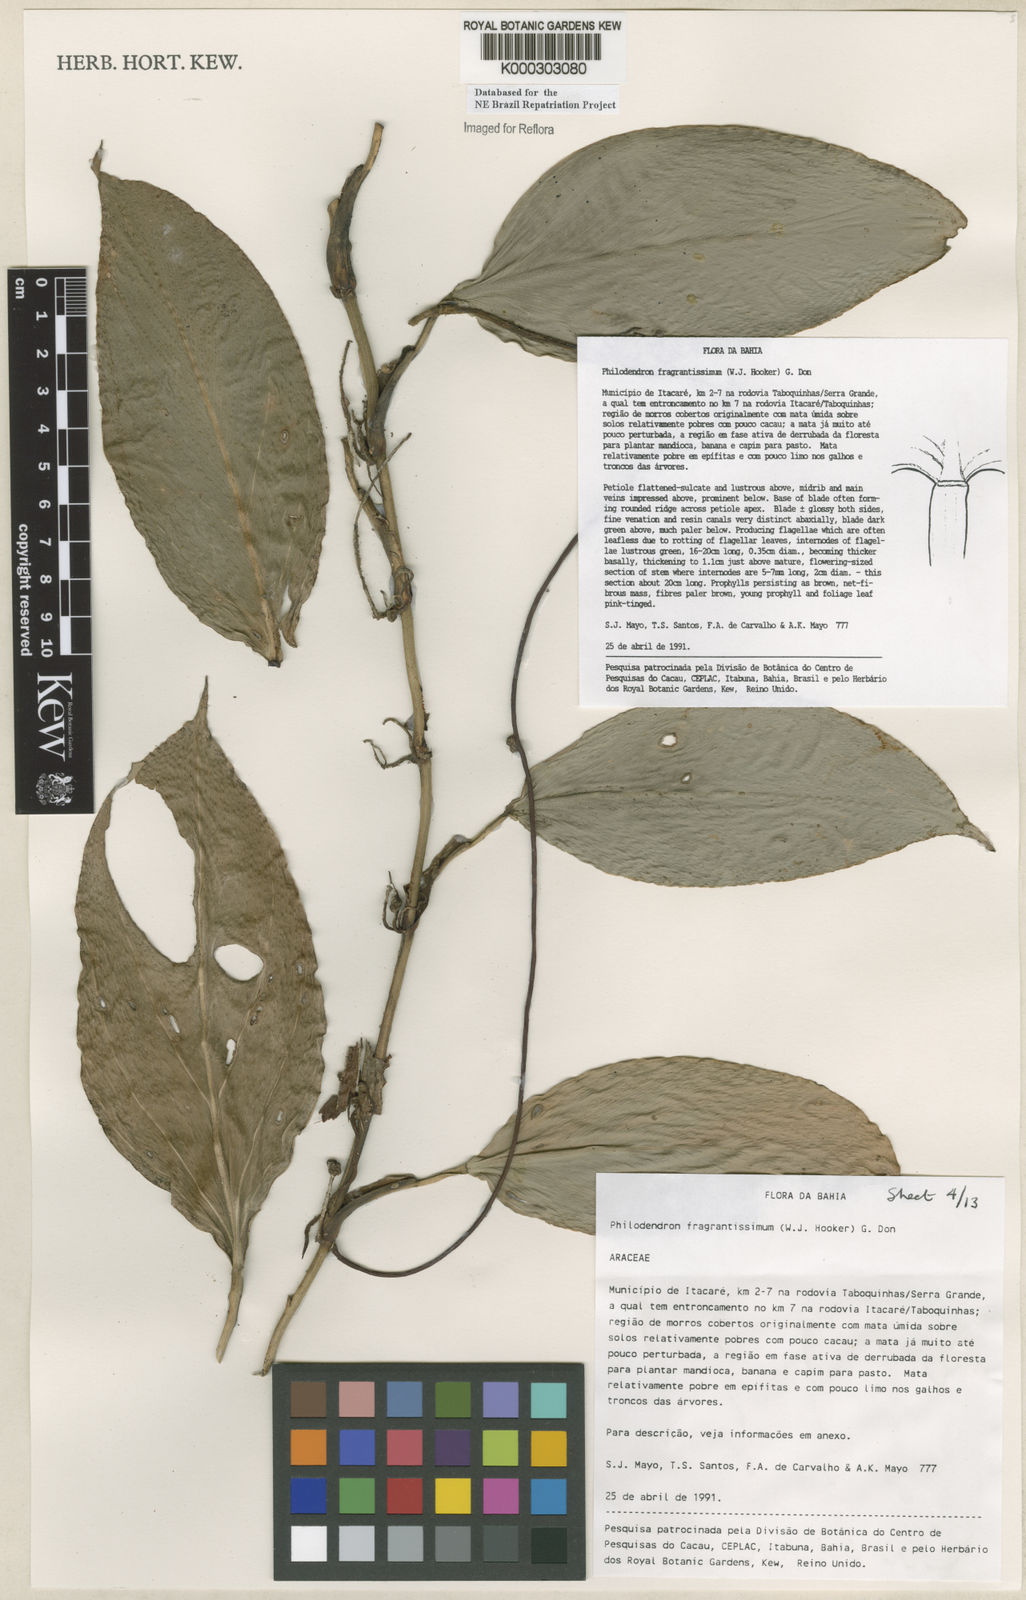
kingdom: Plantae
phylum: Tracheophyta
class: Liliopsida
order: Alismatales
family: Araceae
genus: Philodendron
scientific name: Philodendron fragrantissimum
